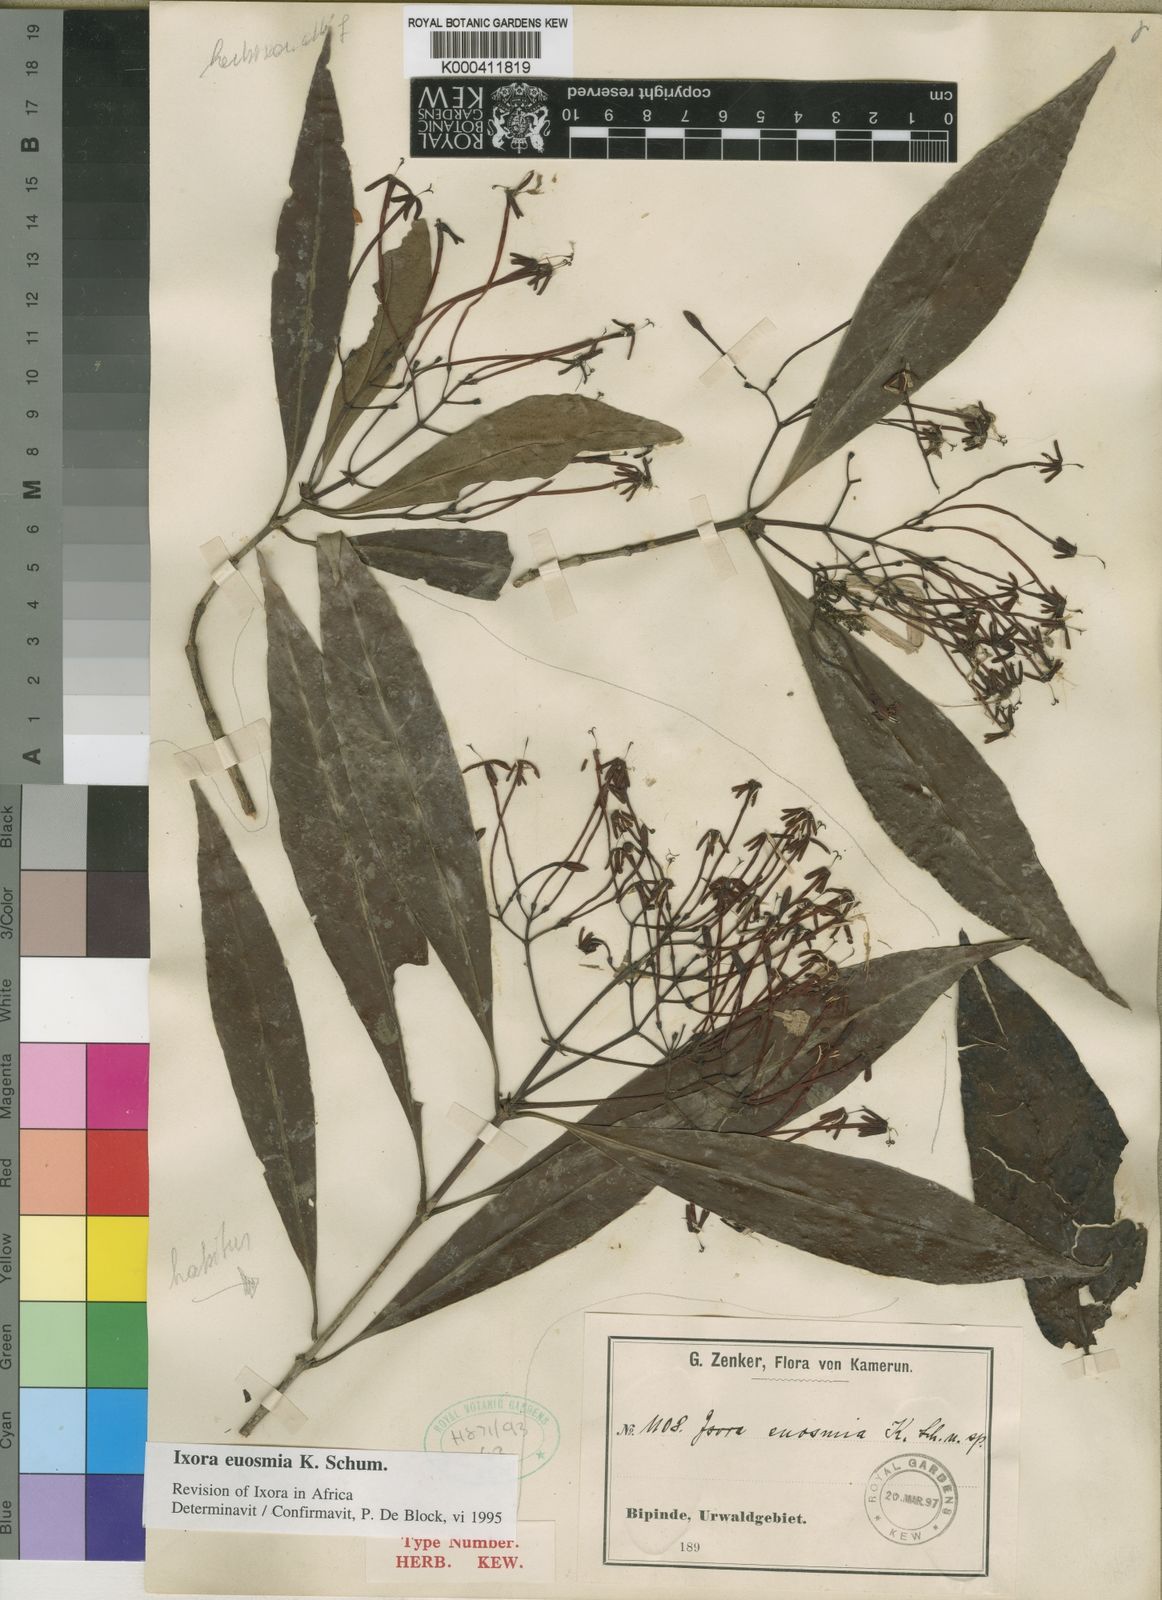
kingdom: Plantae
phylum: Tracheophyta
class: Magnoliopsida
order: Gentianales
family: Rubiaceae
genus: Ixora
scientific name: Ixora
